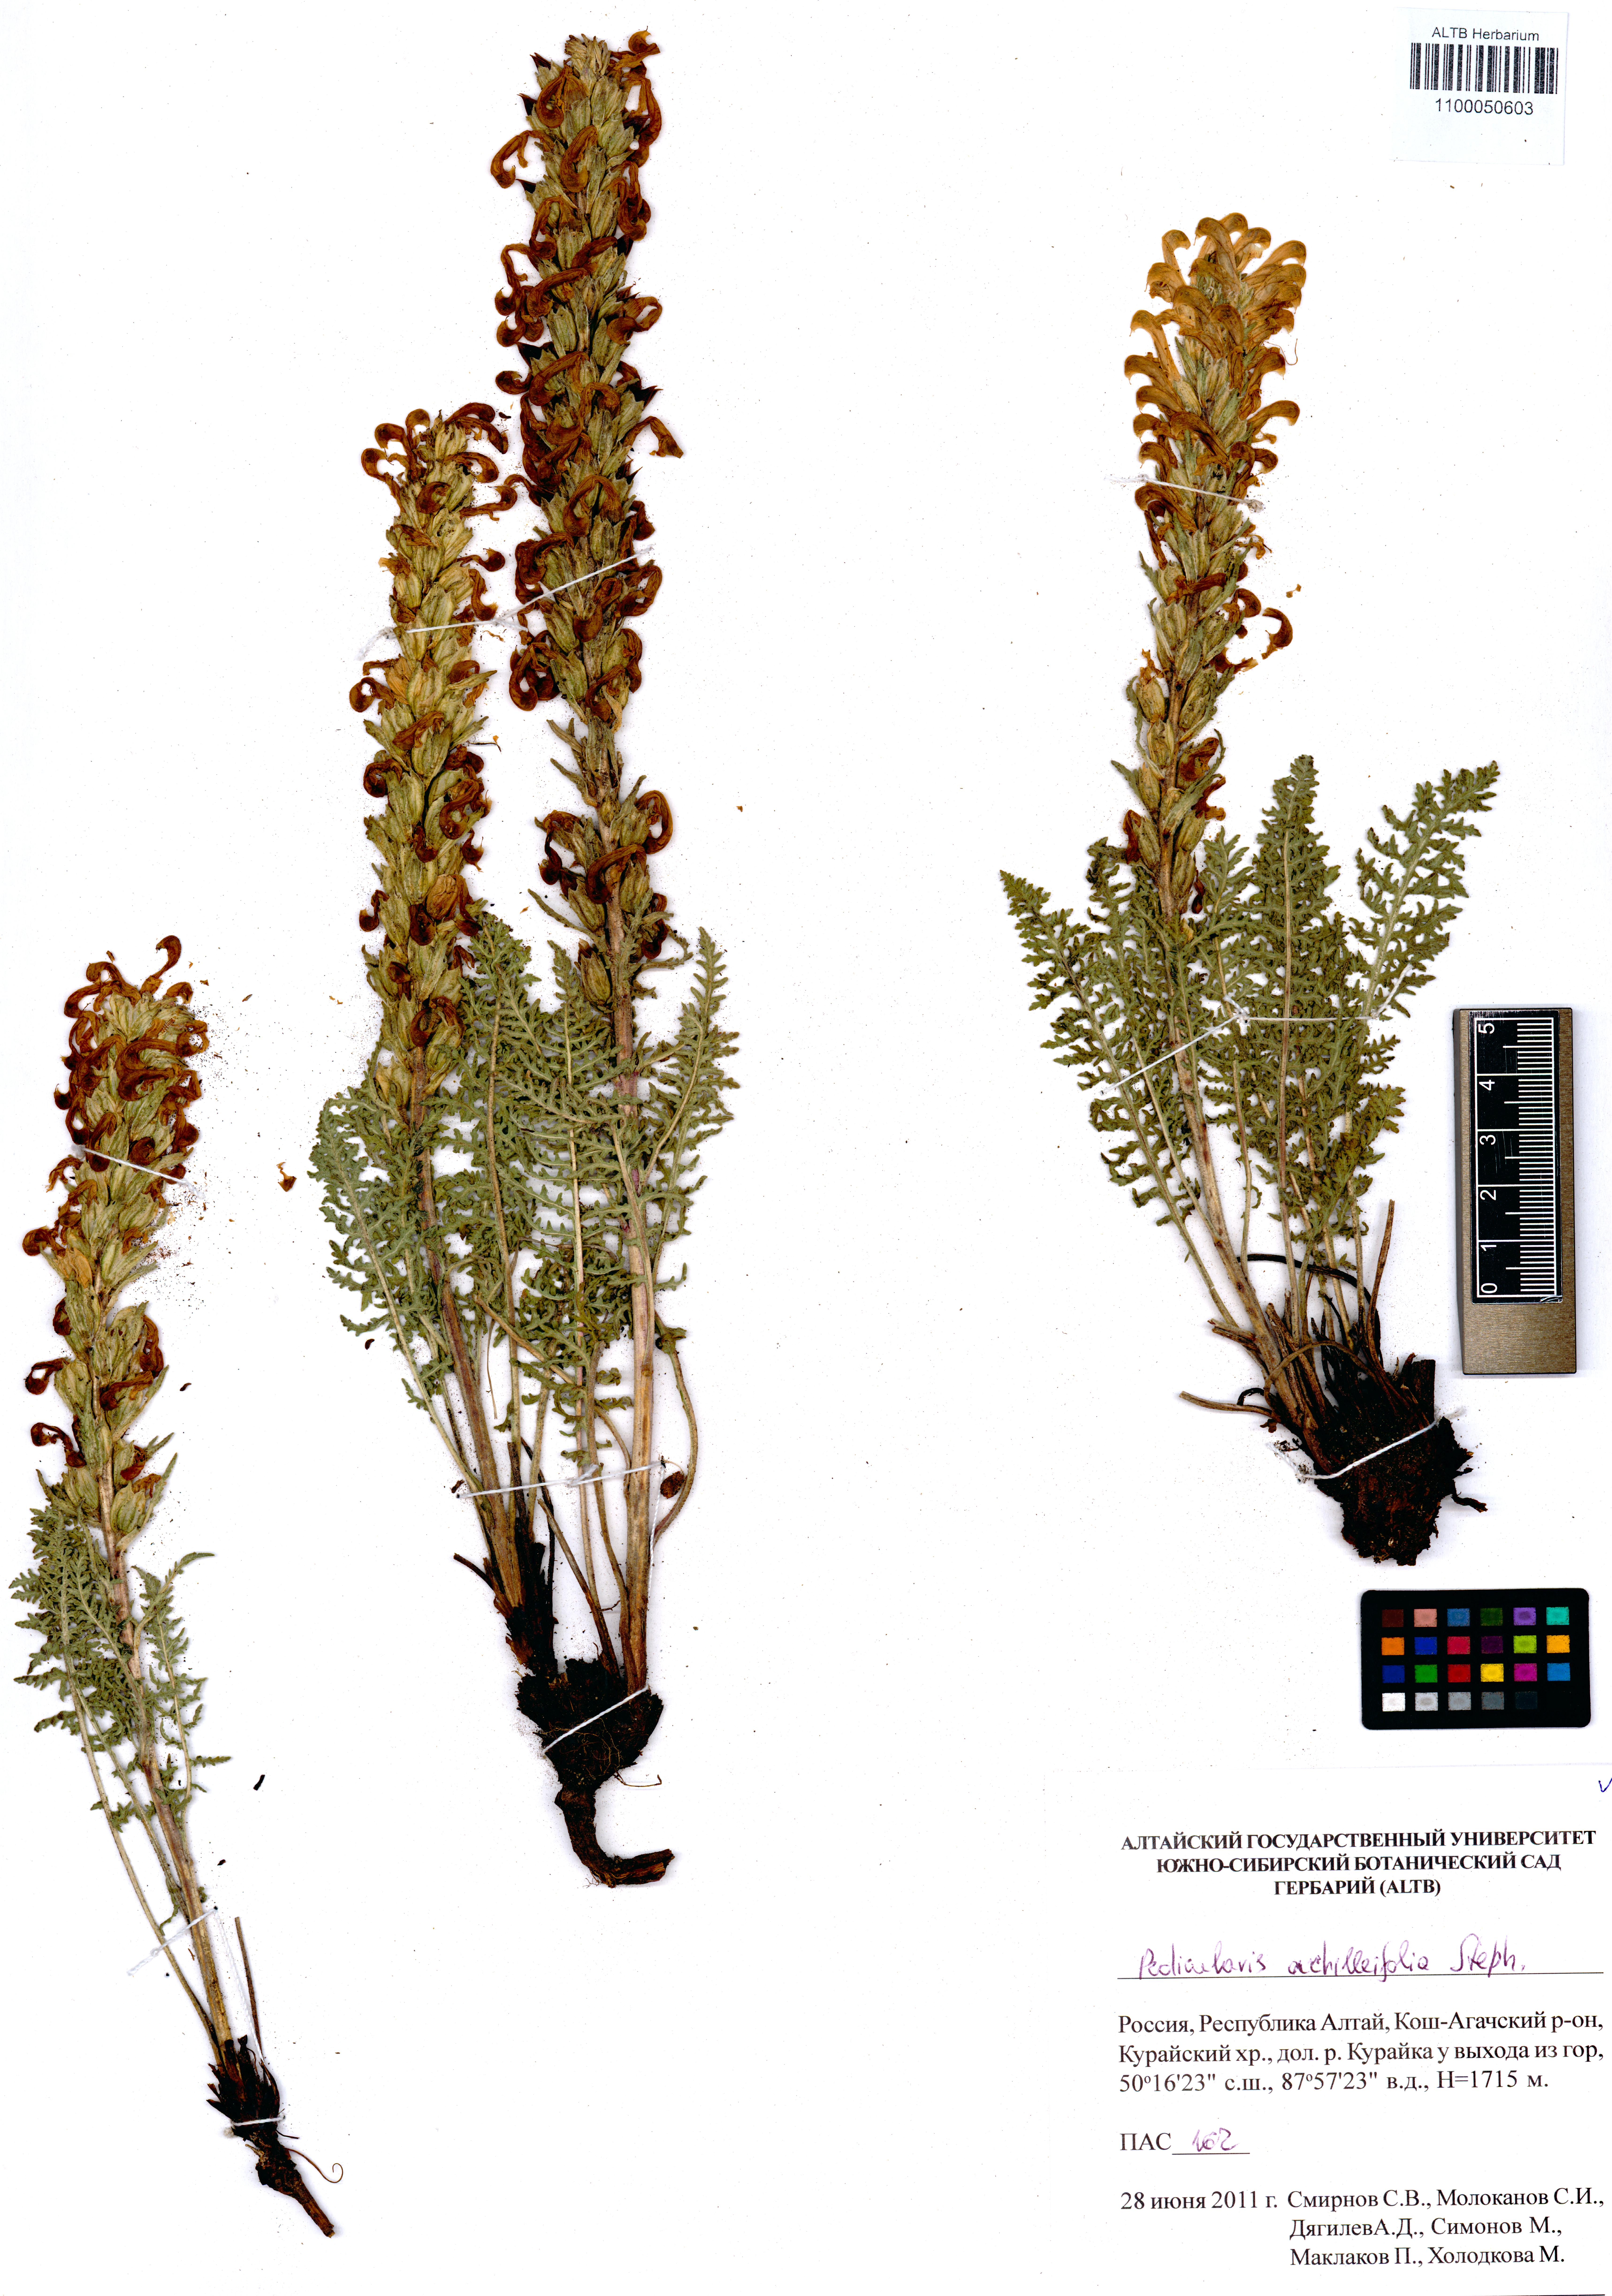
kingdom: Plantae
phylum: Tracheophyta
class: Magnoliopsida
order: Lamiales
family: Orobanchaceae
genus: Pedicularis
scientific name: Pedicularis achilleifolia
